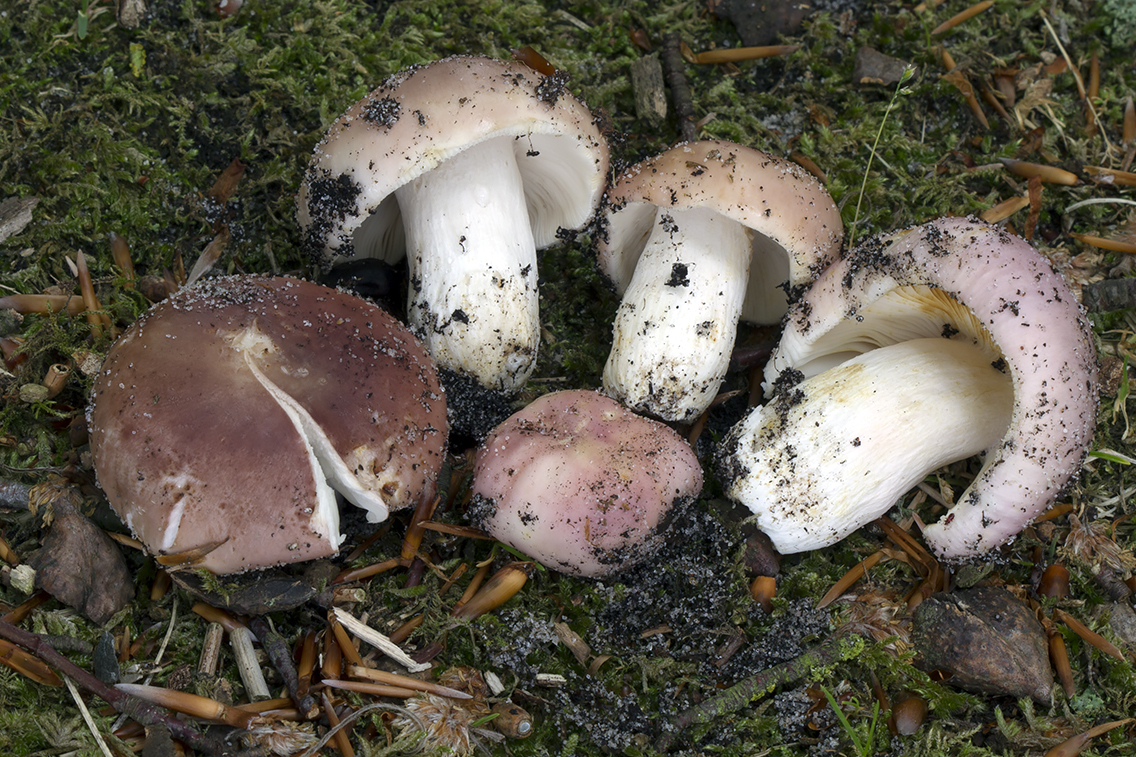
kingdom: Fungi
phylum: Basidiomycota
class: Agaricomycetes
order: Russulales
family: Russulaceae
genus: Russula
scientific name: Russula vesca
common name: spiselig skørhat
